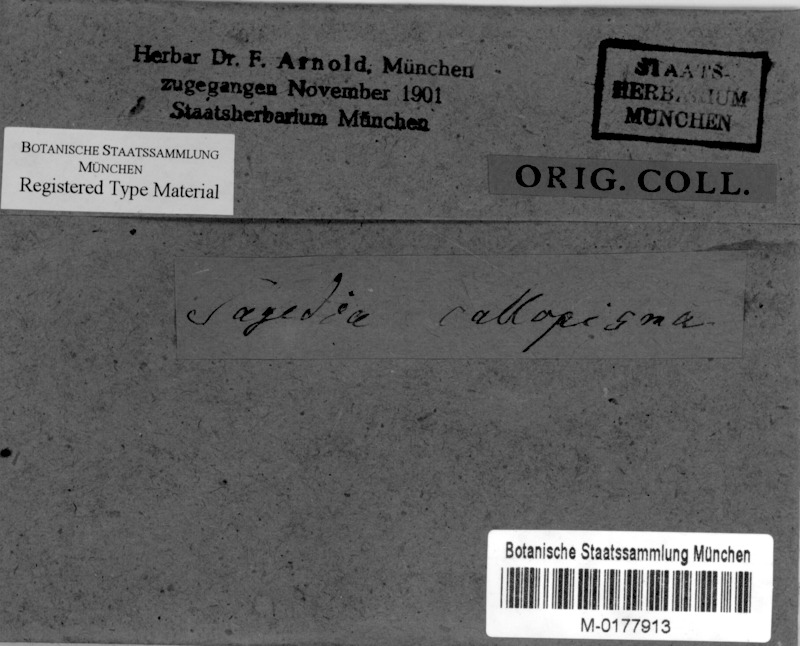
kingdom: Fungi
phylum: Ascomycota
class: Lecanoromycetes
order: Pertusariales
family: Pertusariaceae
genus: Porina
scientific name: Porina callopisma
